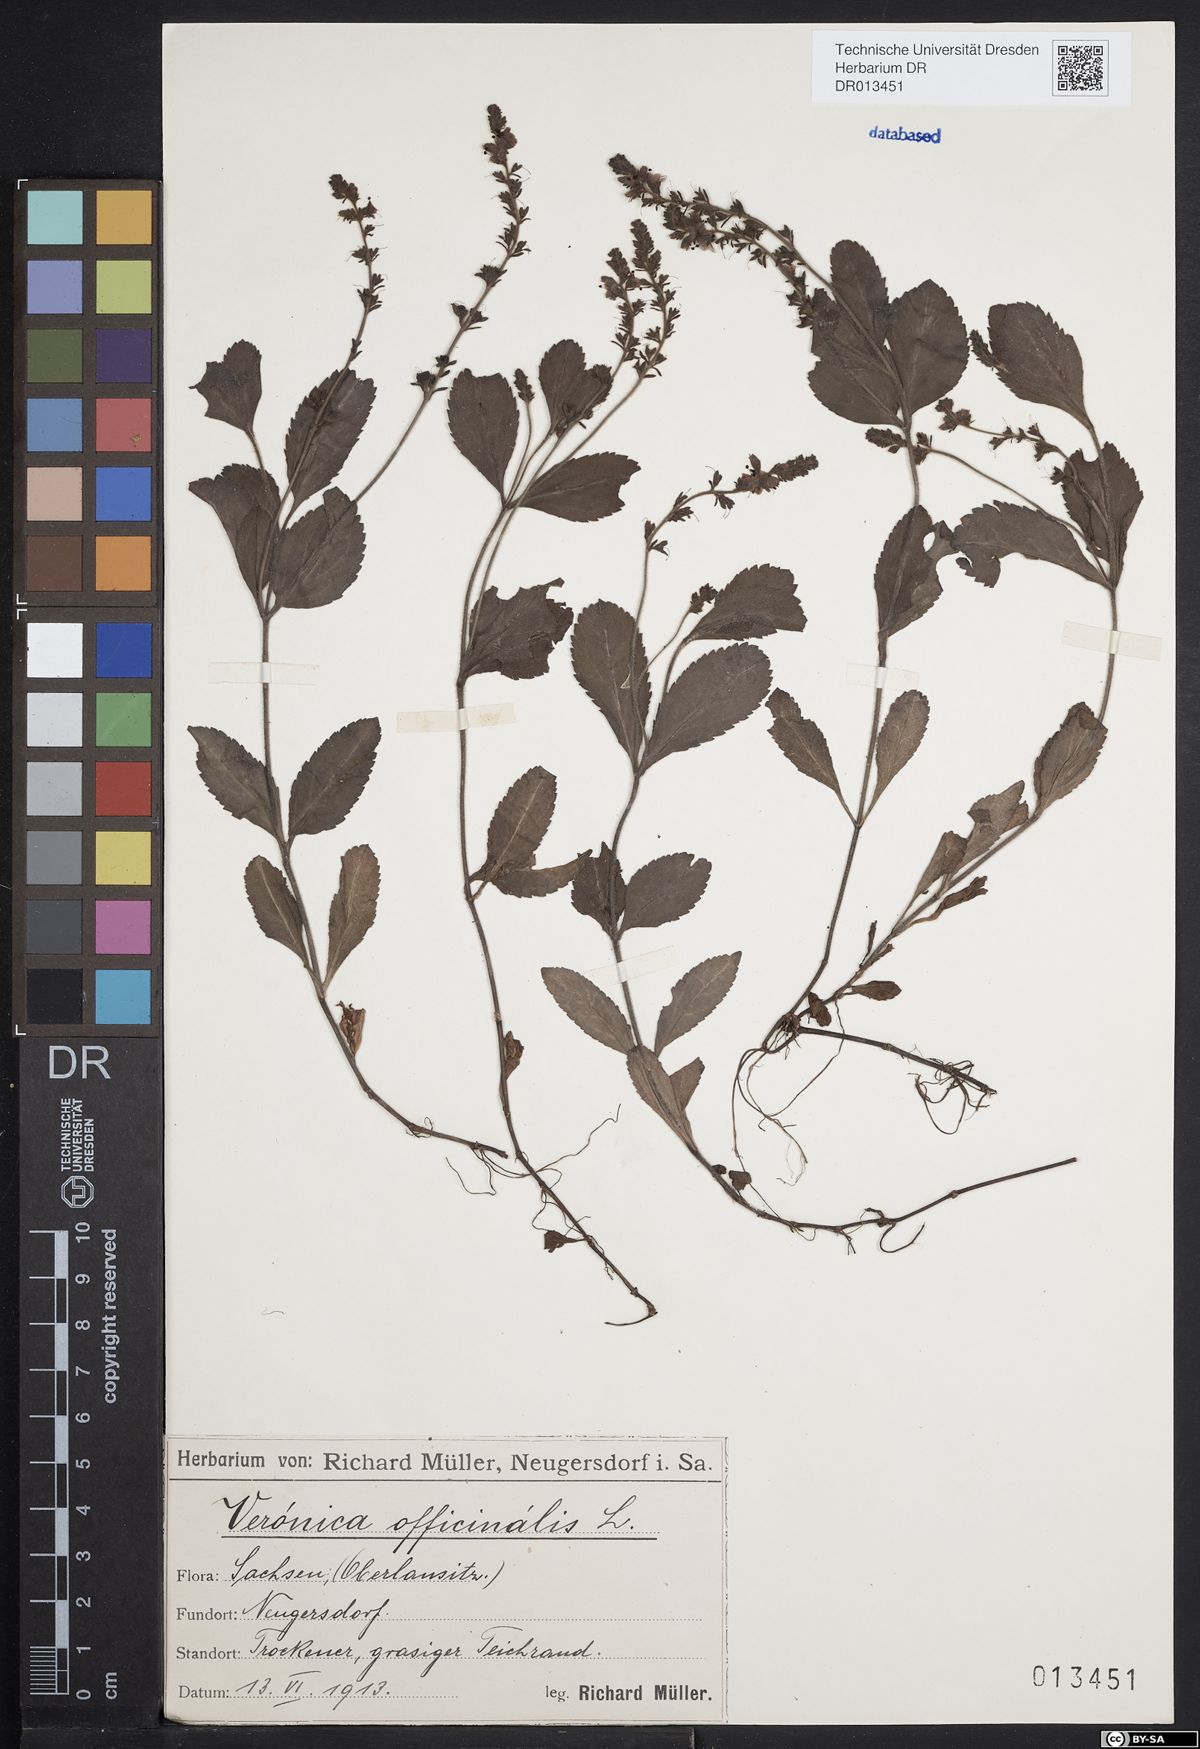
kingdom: Plantae
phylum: Tracheophyta
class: Magnoliopsida
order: Lamiales
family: Plantaginaceae
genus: Veronica
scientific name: Veronica officinalis
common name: Common speedwell
